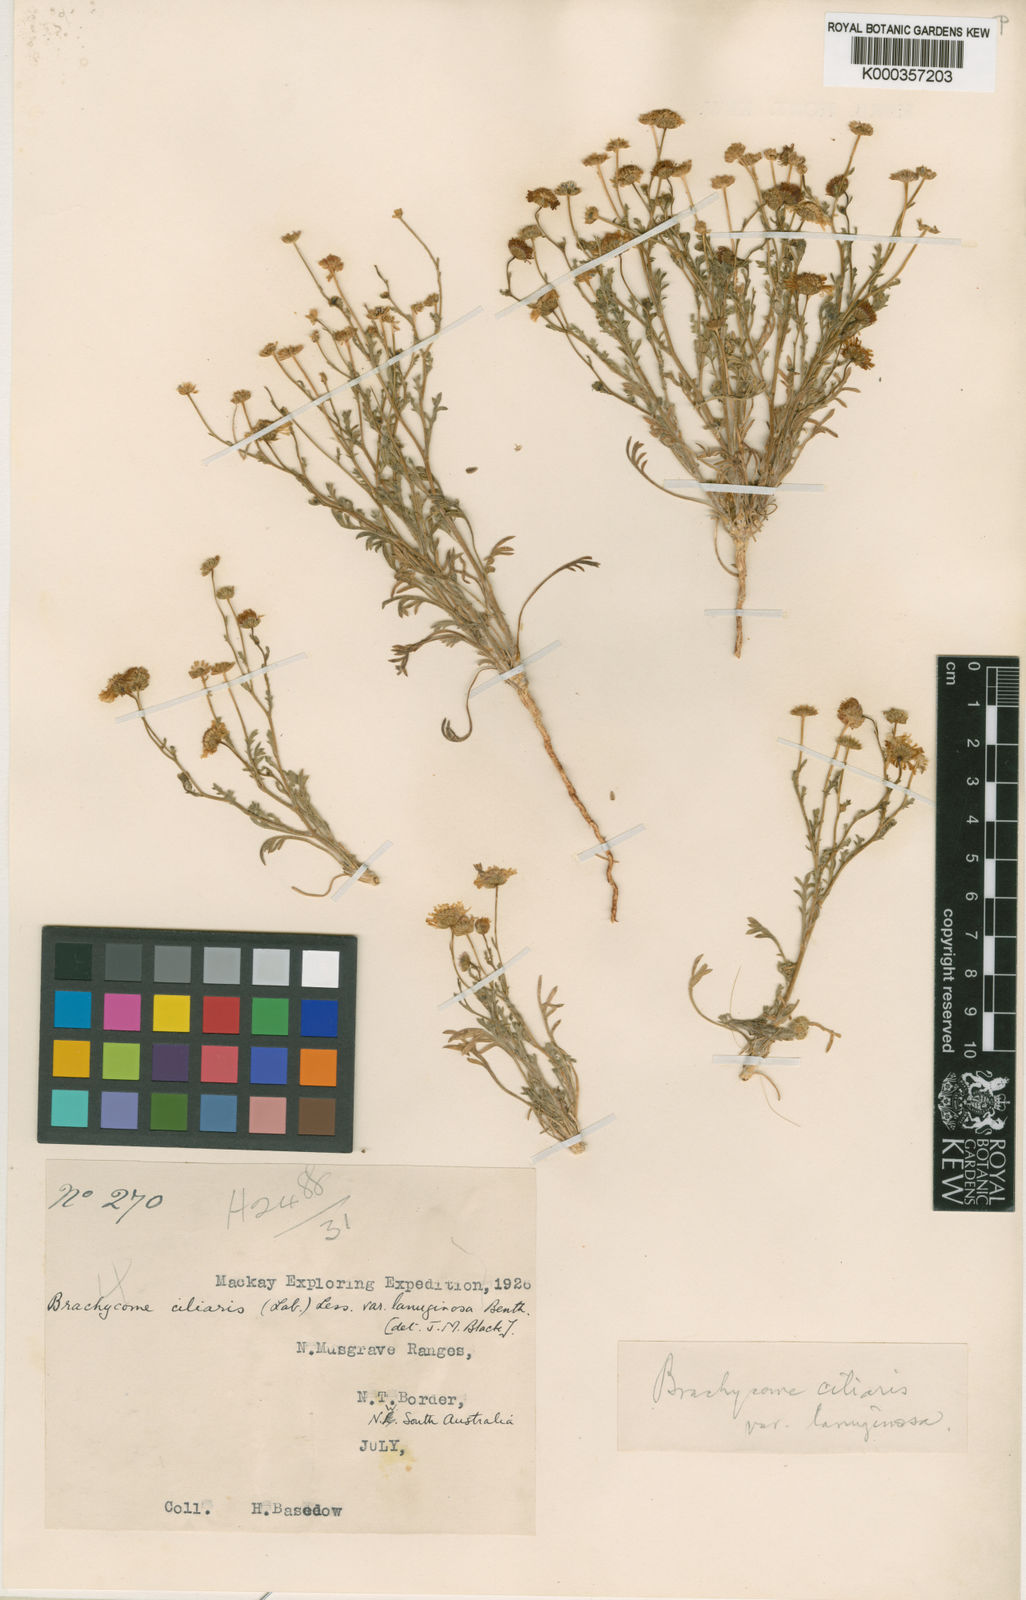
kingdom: Plantae
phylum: Tracheophyta
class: Magnoliopsida
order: Asterales
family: Asteraceae
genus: Brachyscome
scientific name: Brachyscome ciliaris
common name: Variable daisy
